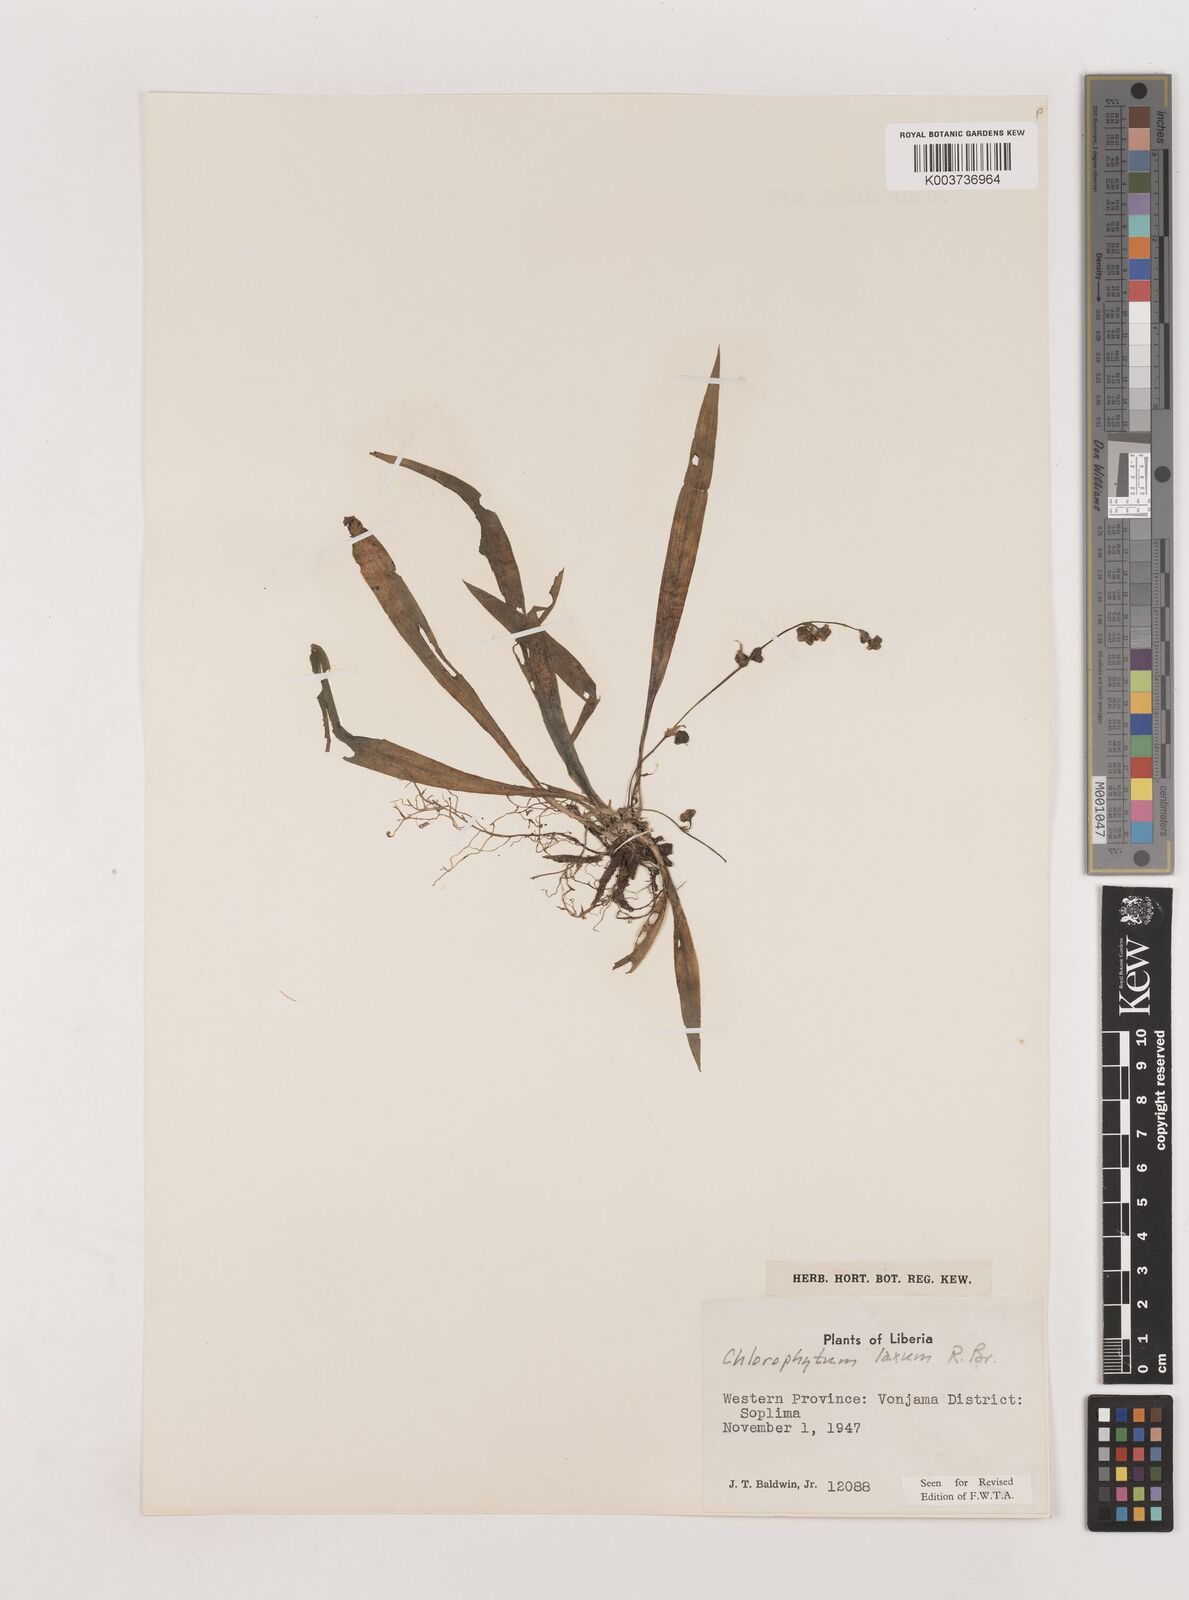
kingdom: Plantae
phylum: Tracheophyta
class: Liliopsida
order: Asparagales
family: Asparagaceae
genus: Chlorophytum
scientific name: Chlorophytum laxum
